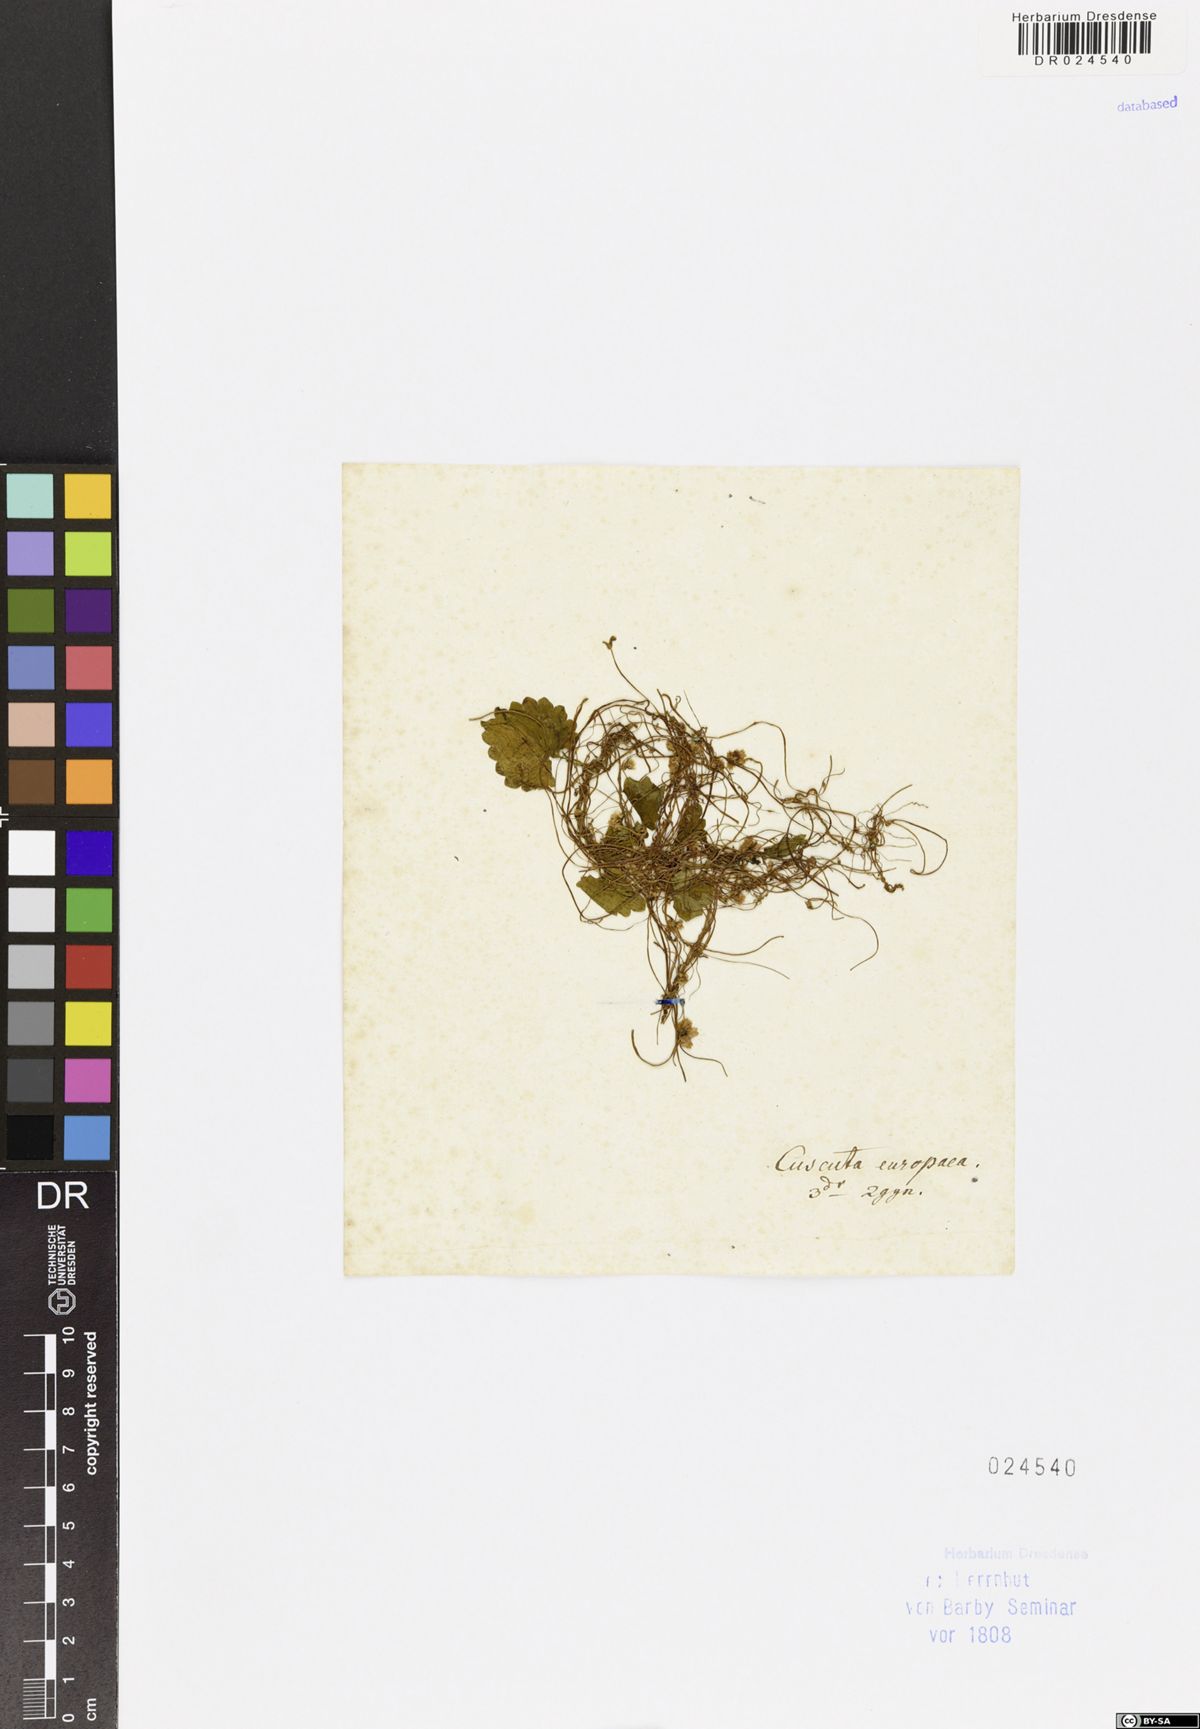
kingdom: Plantae
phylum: Tracheophyta
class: Magnoliopsida
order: Solanales
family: Convolvulaceae
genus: Cuscuta
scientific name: Cuscuta europaea
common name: Greater dodder
